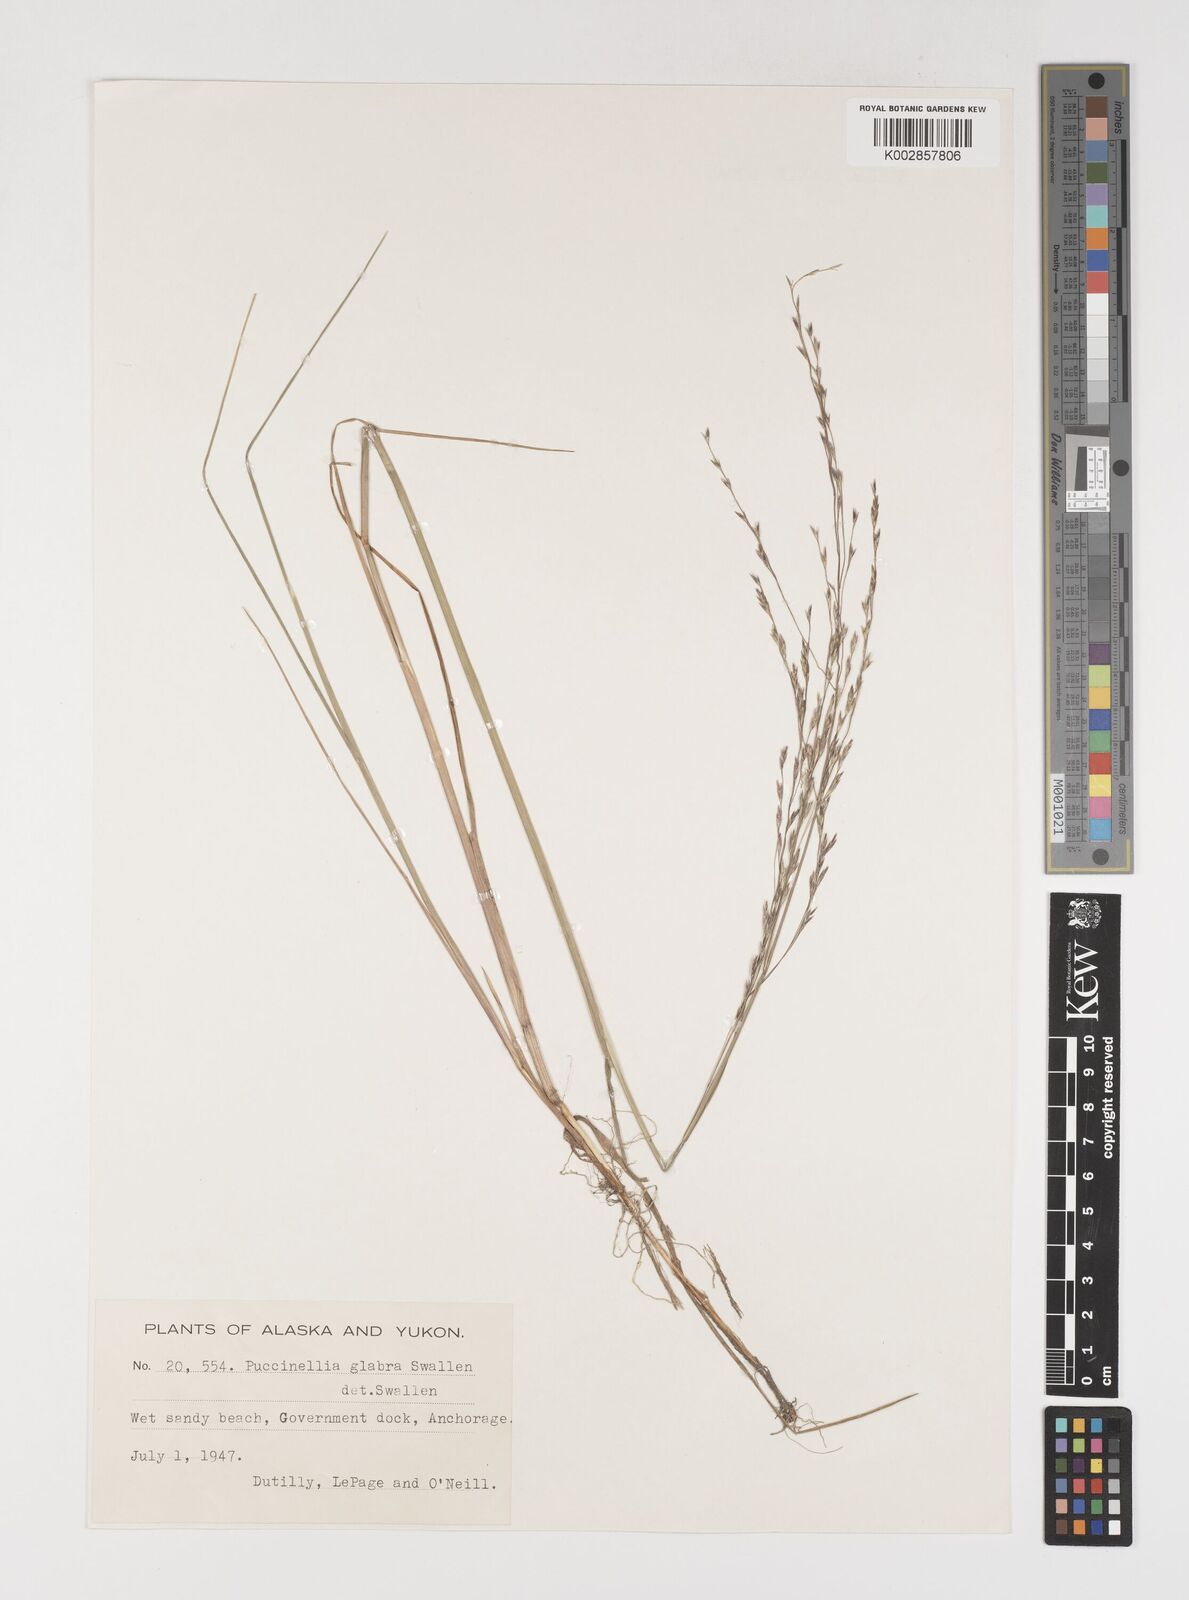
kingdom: Plantae
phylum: Tracheophyta
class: Liliopsida
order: Poales
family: Poaceae
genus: Puccinellia
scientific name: Puccinellia andersonii
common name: Anderson's alkali grass
